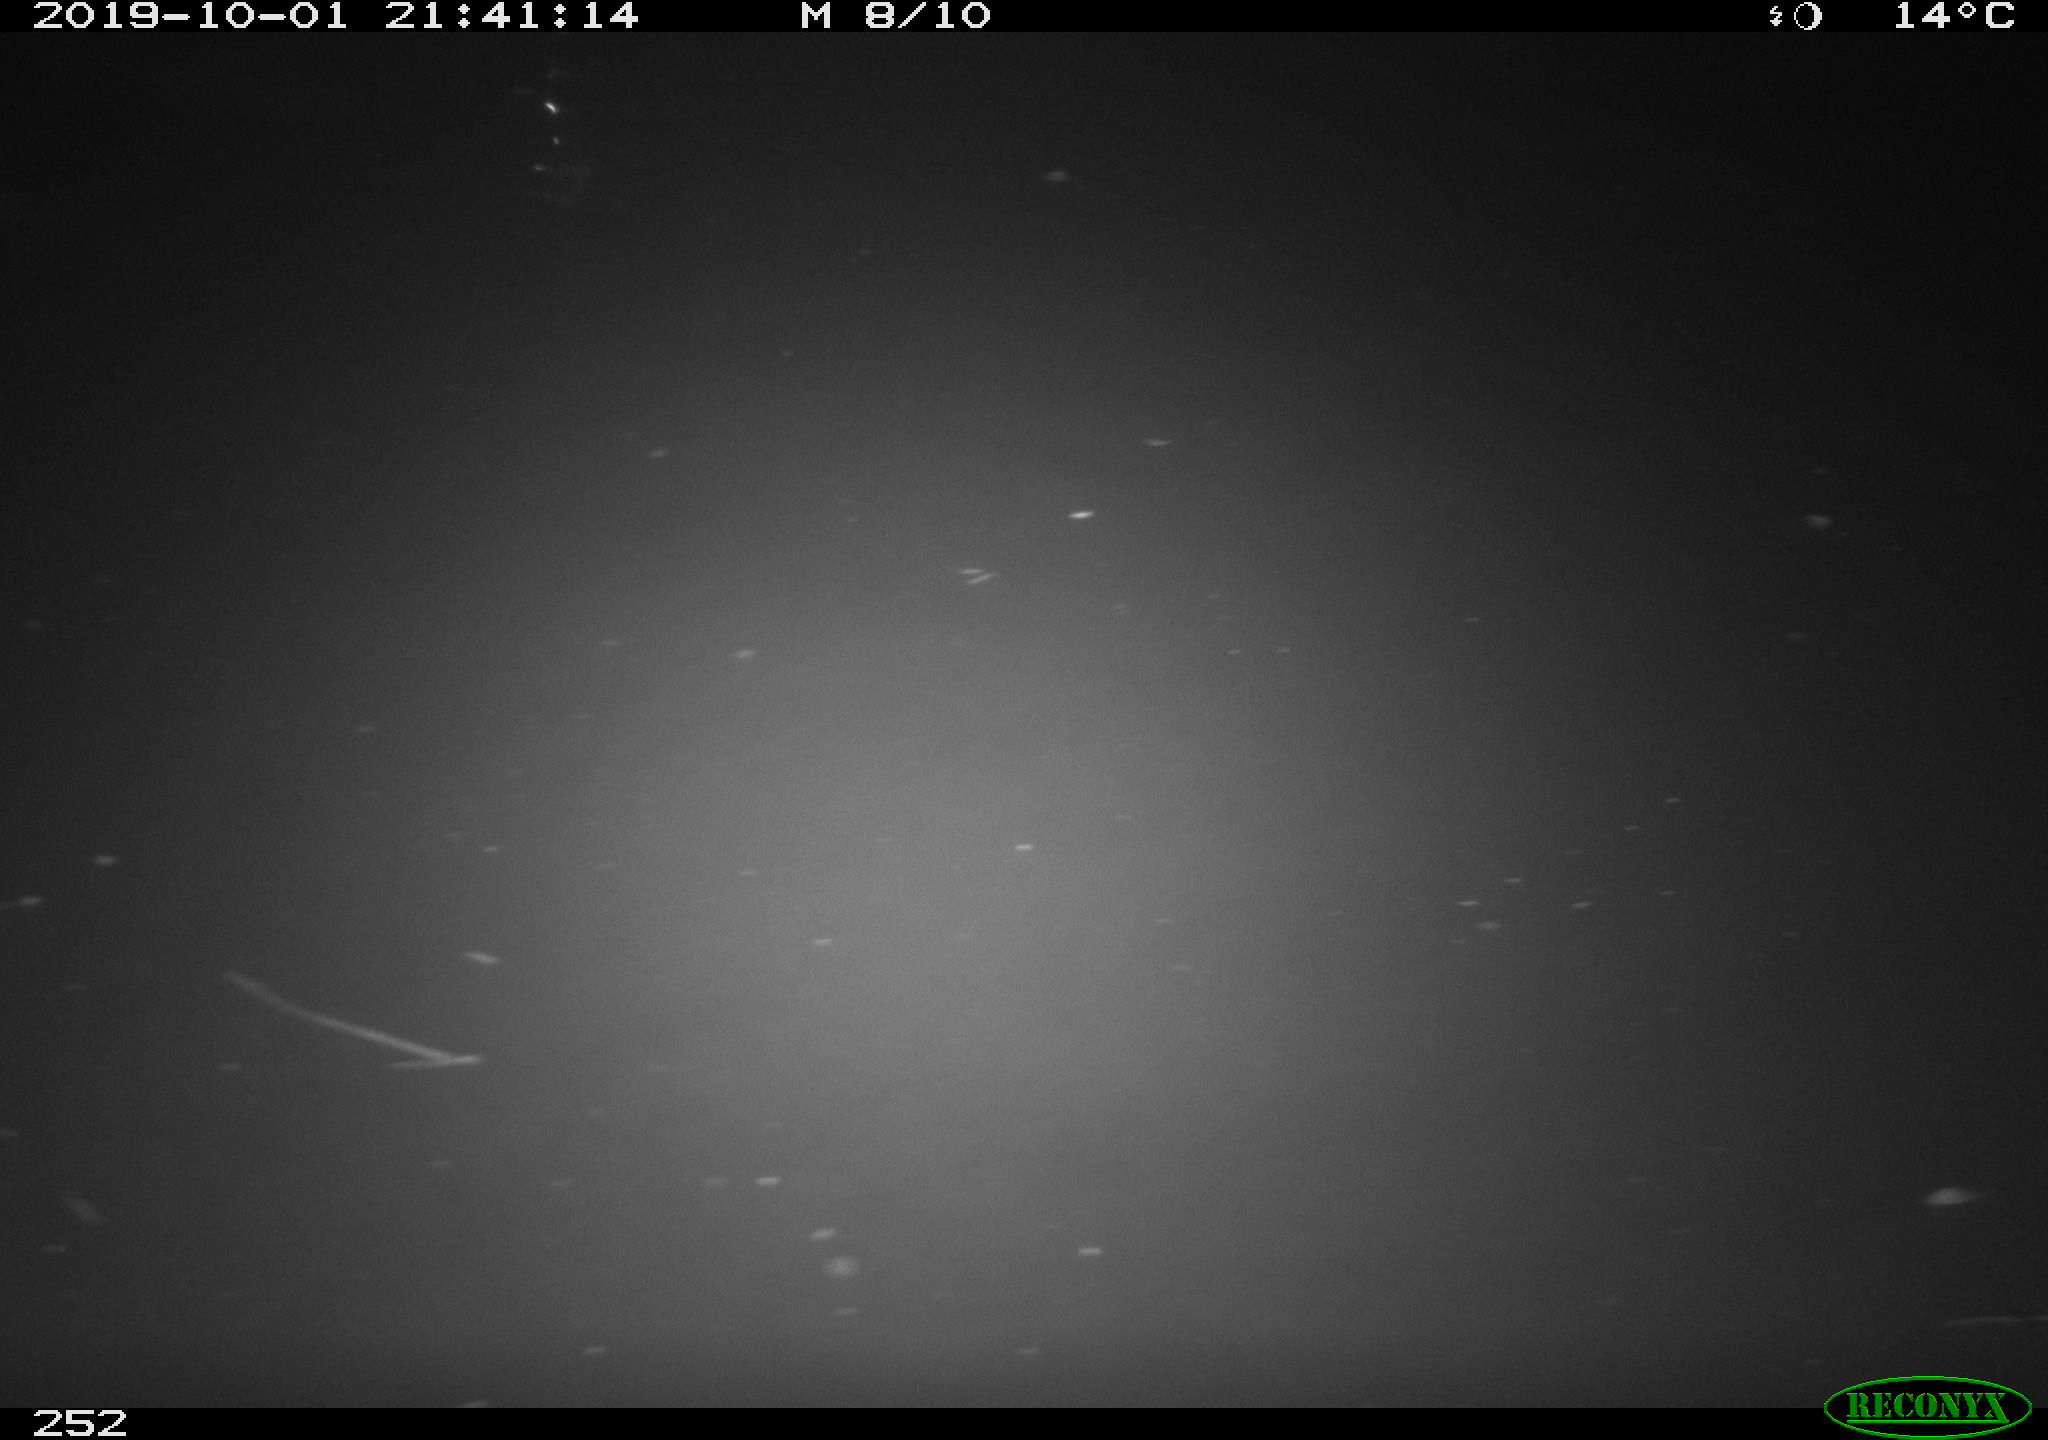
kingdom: Animalia
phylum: Chordata
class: Aves
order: Anseriformes
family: Anatidae
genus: Anas
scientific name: Anas platyrhynchos
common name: Mallard
